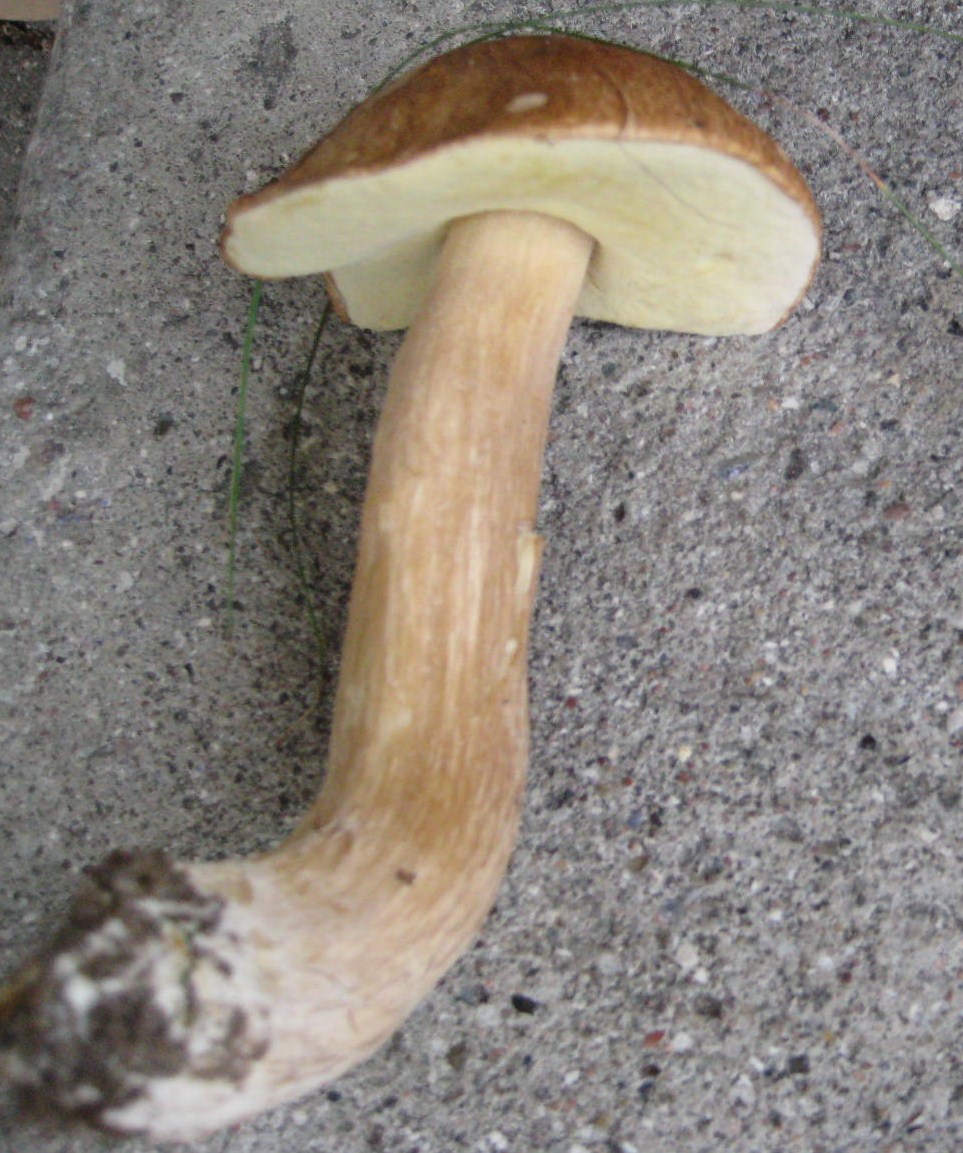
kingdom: Fungi
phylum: Basidiomycota
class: Agaricomycetes
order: Boletales
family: Boletaceae
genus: Boletus
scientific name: Boletus edulis
